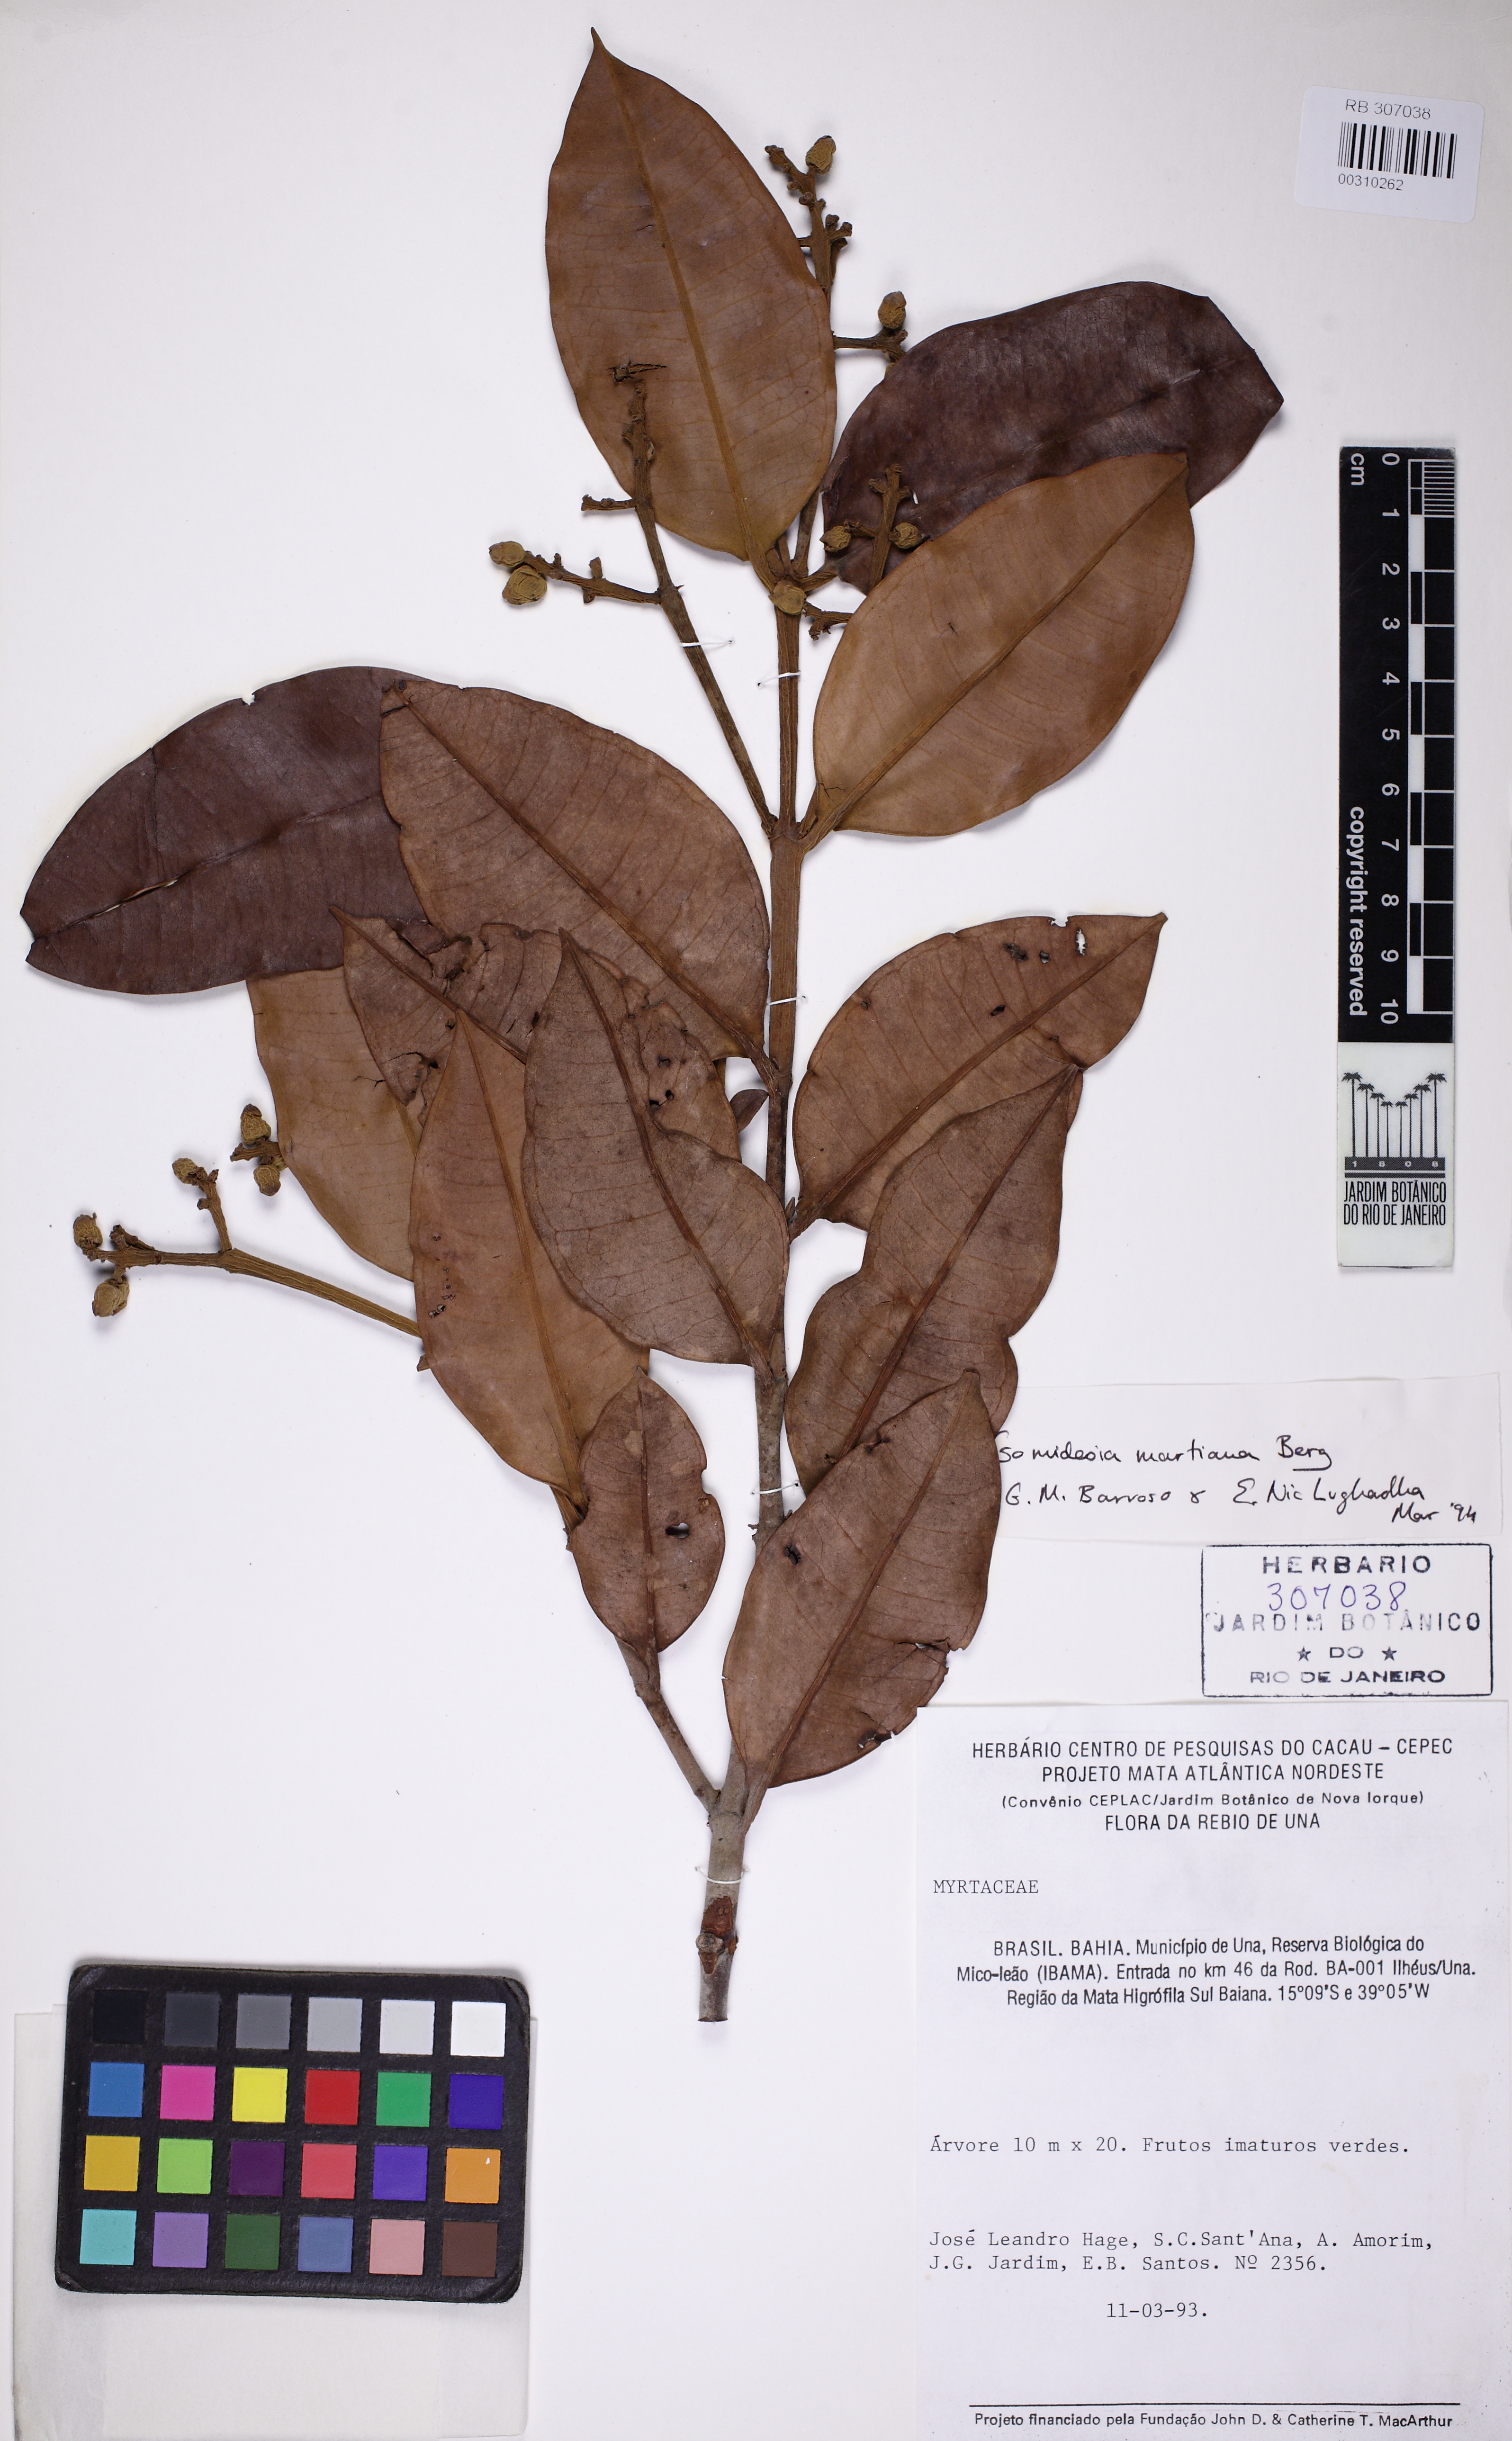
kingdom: Plantae
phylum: Tracheophyta
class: Magnoliopsida
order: Myrtales
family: Myrtaceae
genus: Myrcia
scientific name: Myrcia vittoriana
